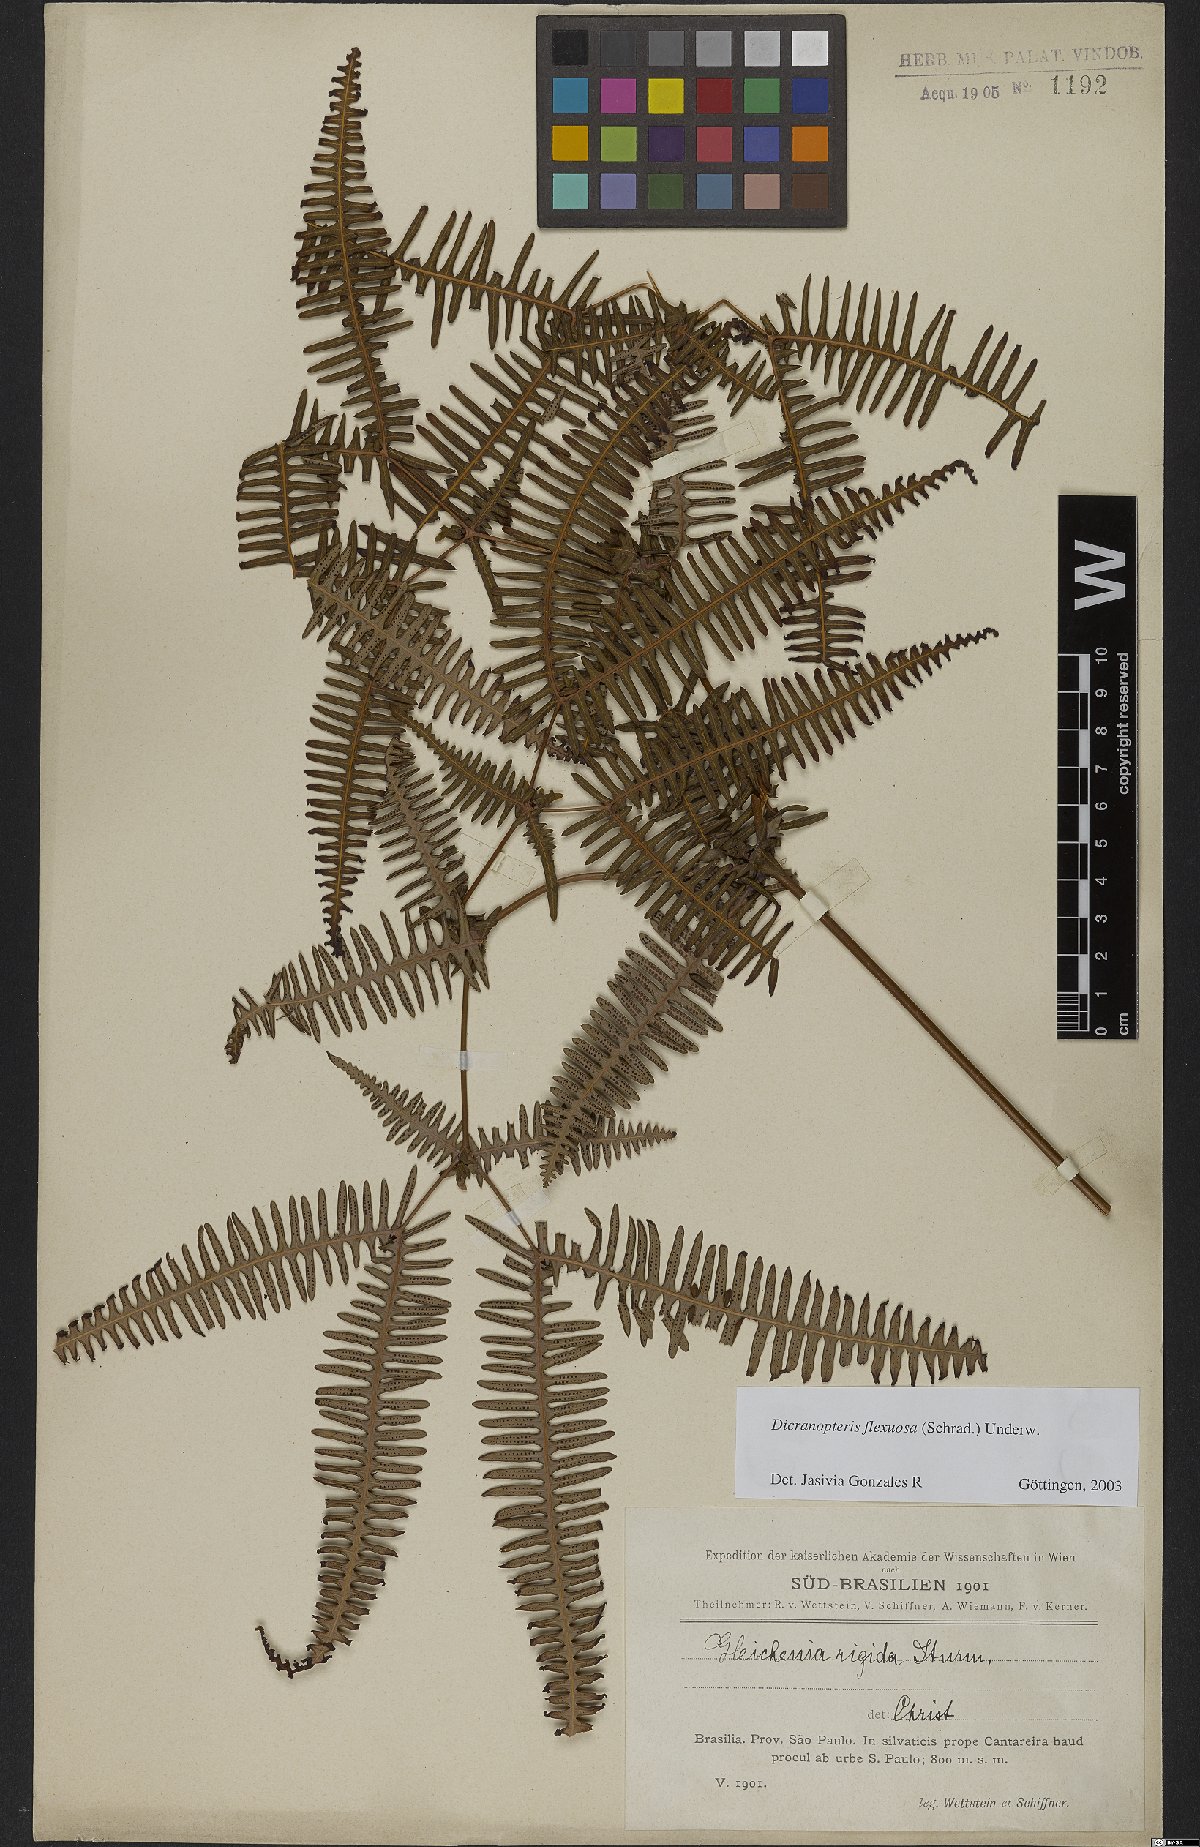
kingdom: Plantae
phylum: Tracheophyta
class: Polypodiopsida
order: Gleicheniales
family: Gleicheniaceae
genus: Dicranopteris
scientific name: Dicranopteris flexuosa
